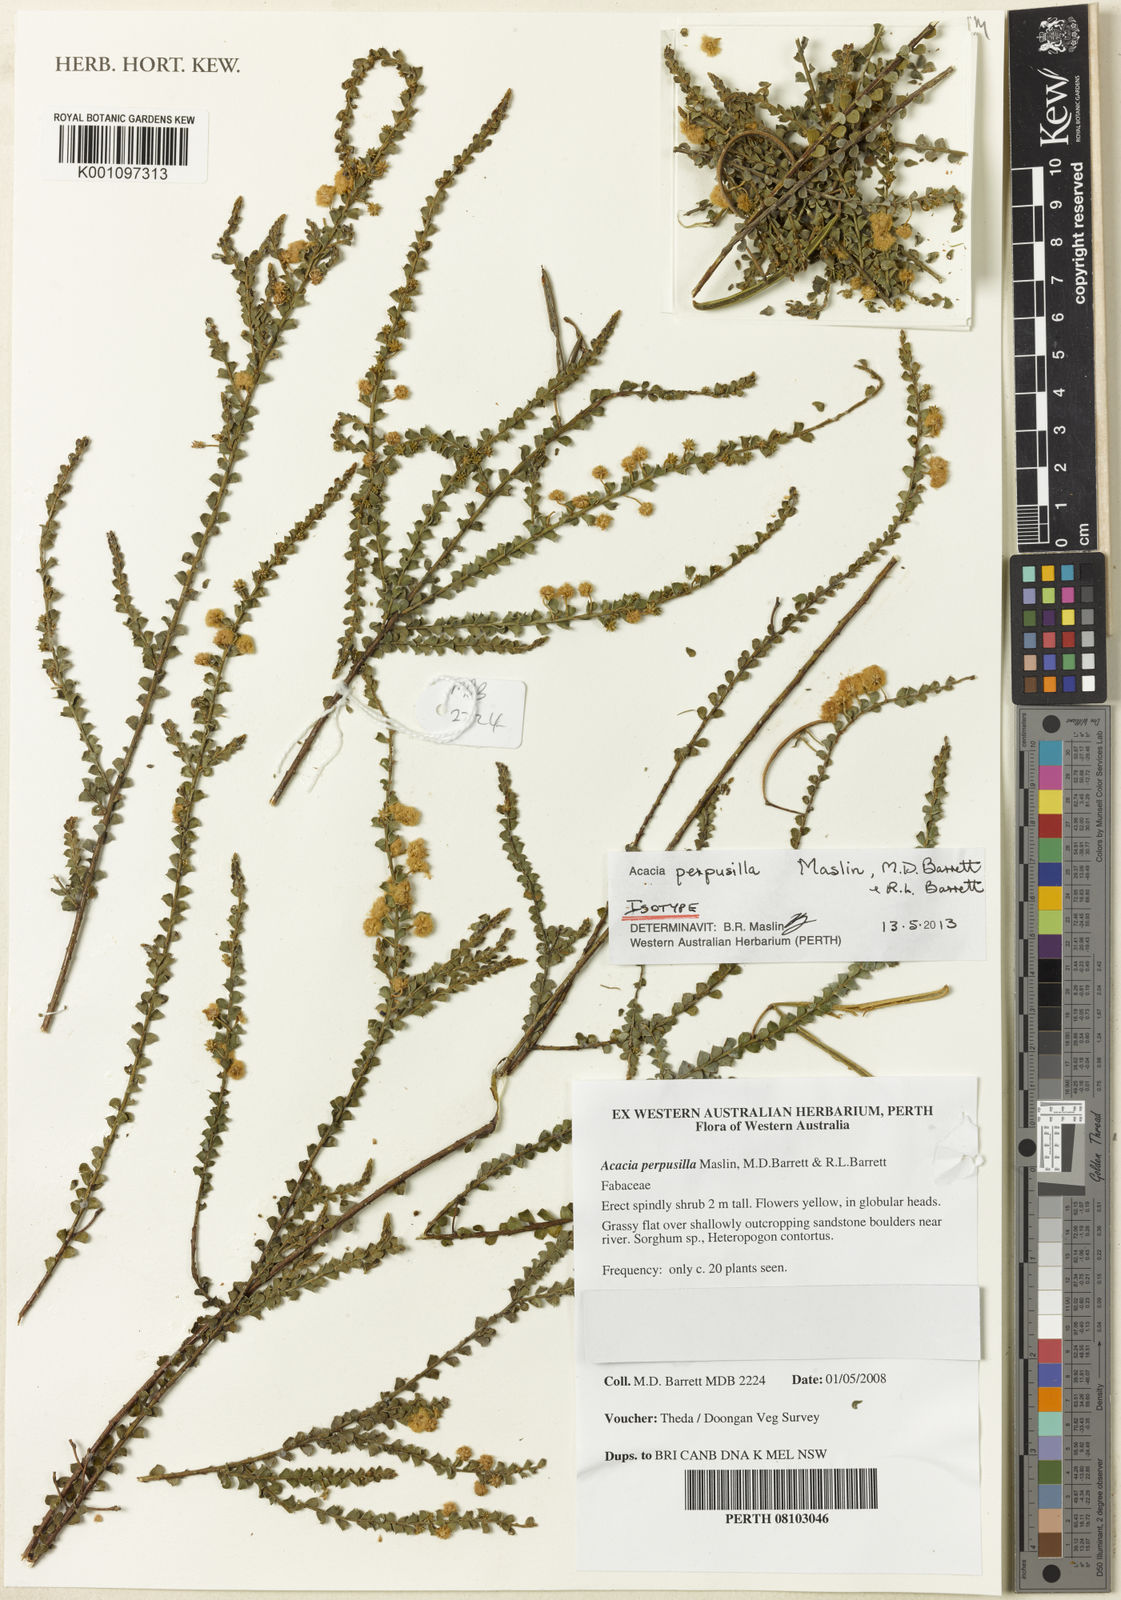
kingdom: Plantae
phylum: Tracheophyta
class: Magnoliopsida
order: Fabales
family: Fabaceae
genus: Acacia
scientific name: Acacia perpusilla
